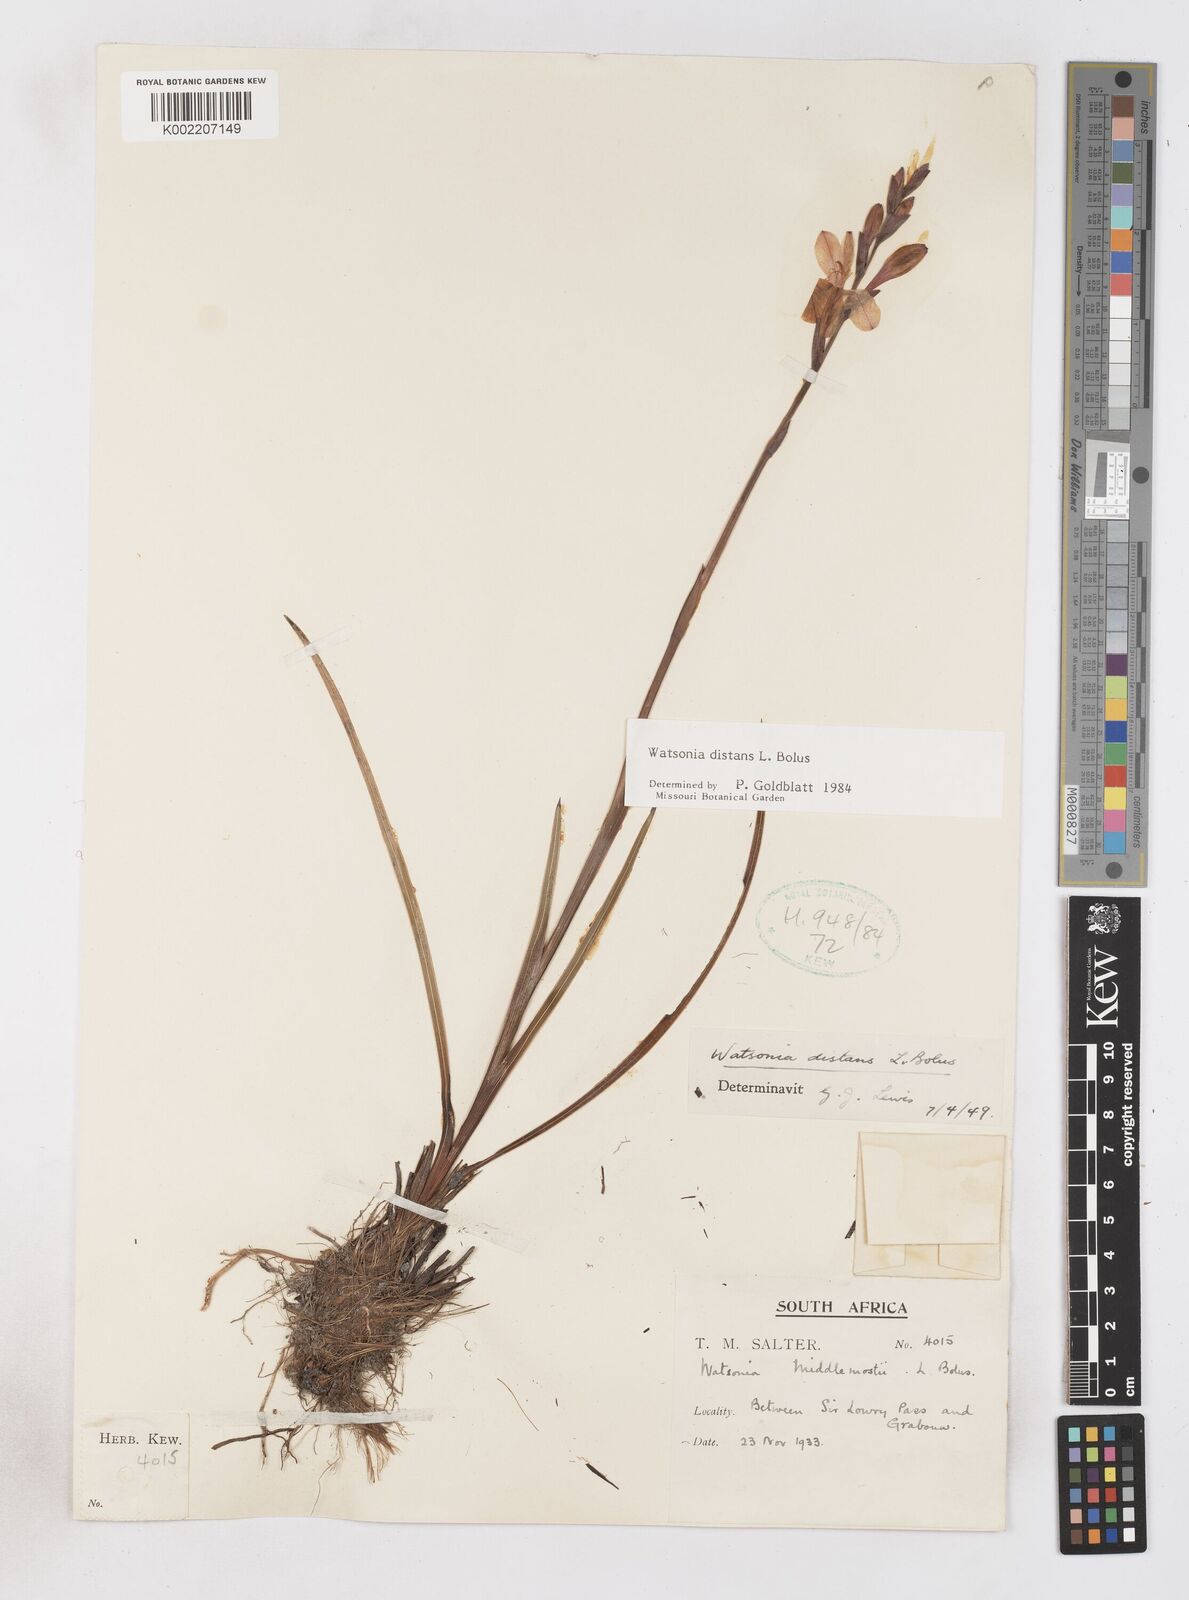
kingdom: Plantae
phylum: Tracheophyta
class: Liliopsida
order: Asparagales
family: Iridaceae
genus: Watsonia
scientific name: Watsonia distans
